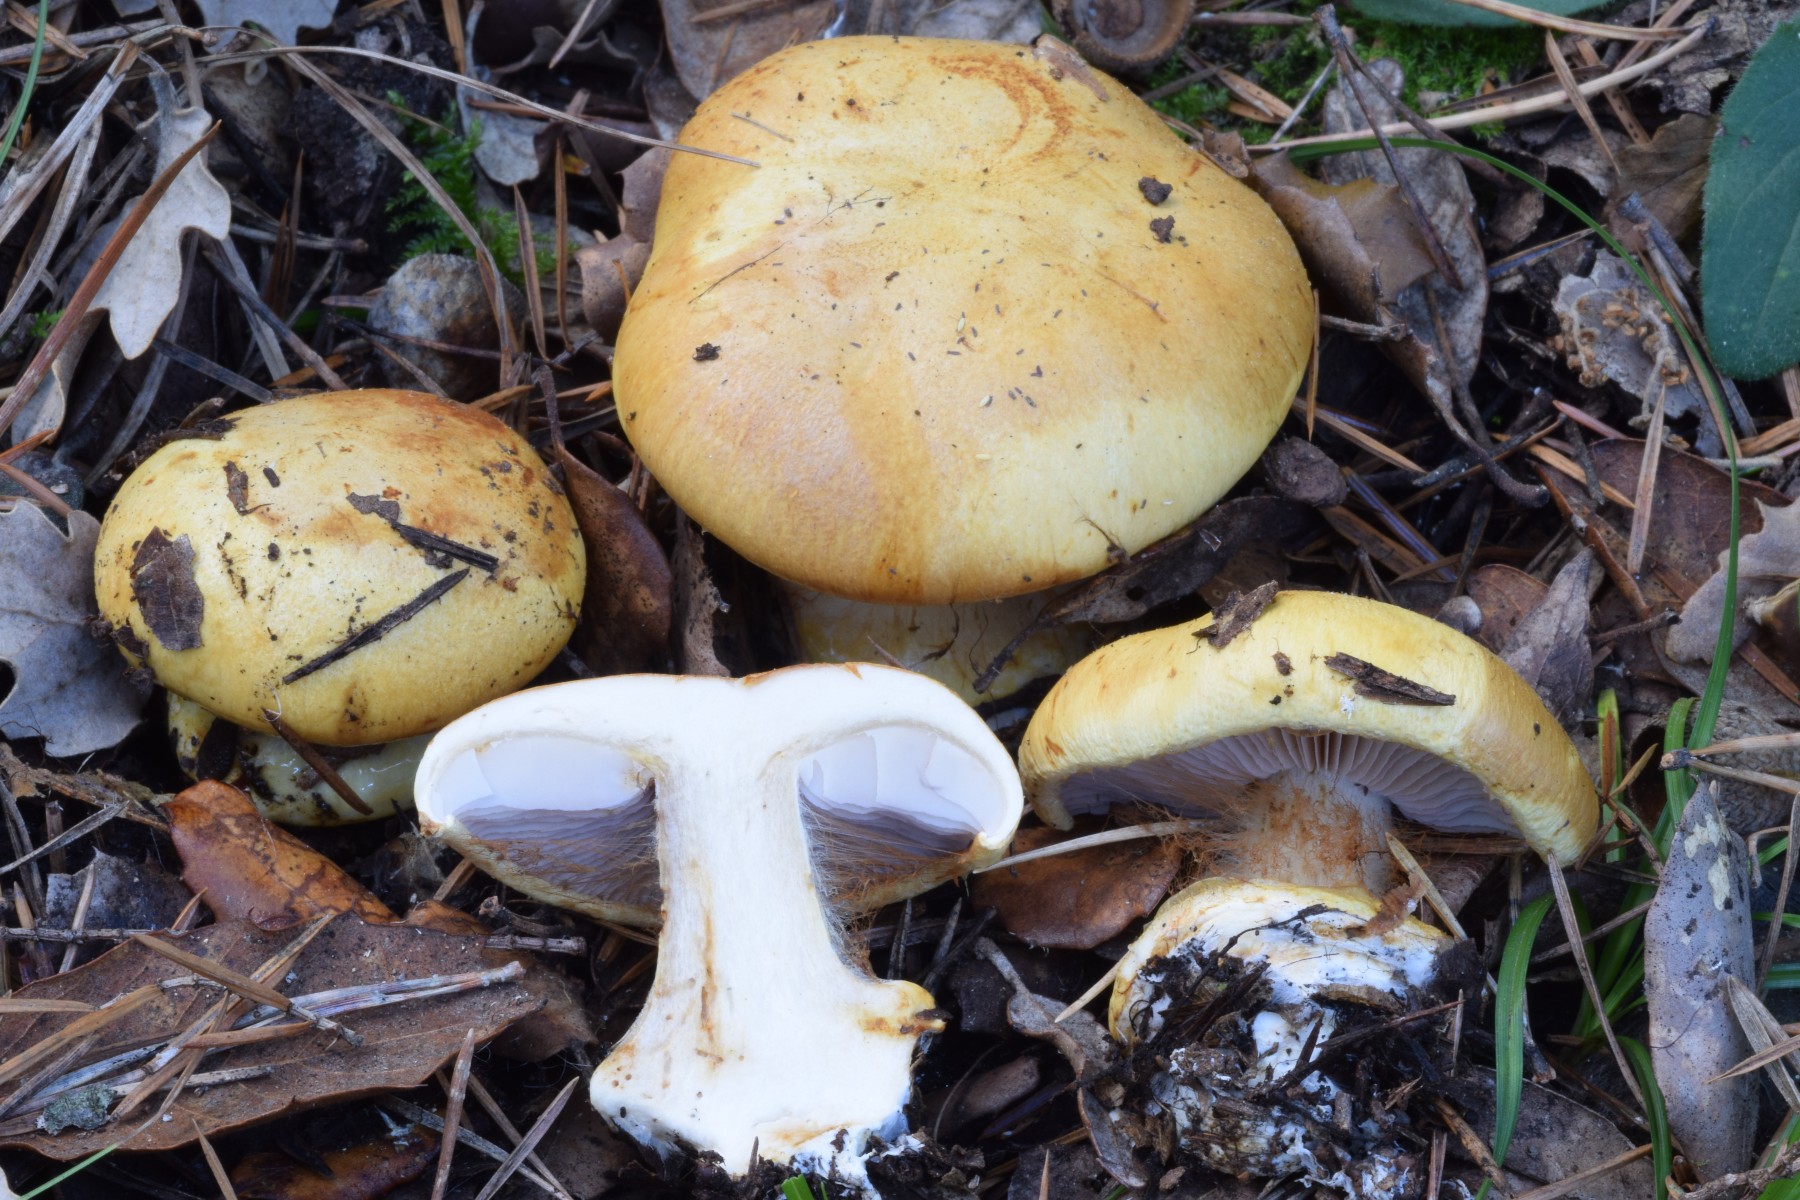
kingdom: Fungi
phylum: Basidiomycota
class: Agaricomycetes
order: Agaricales
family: Cortinariaceae
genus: Calonarius
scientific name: Calonarius flavoaurantians
